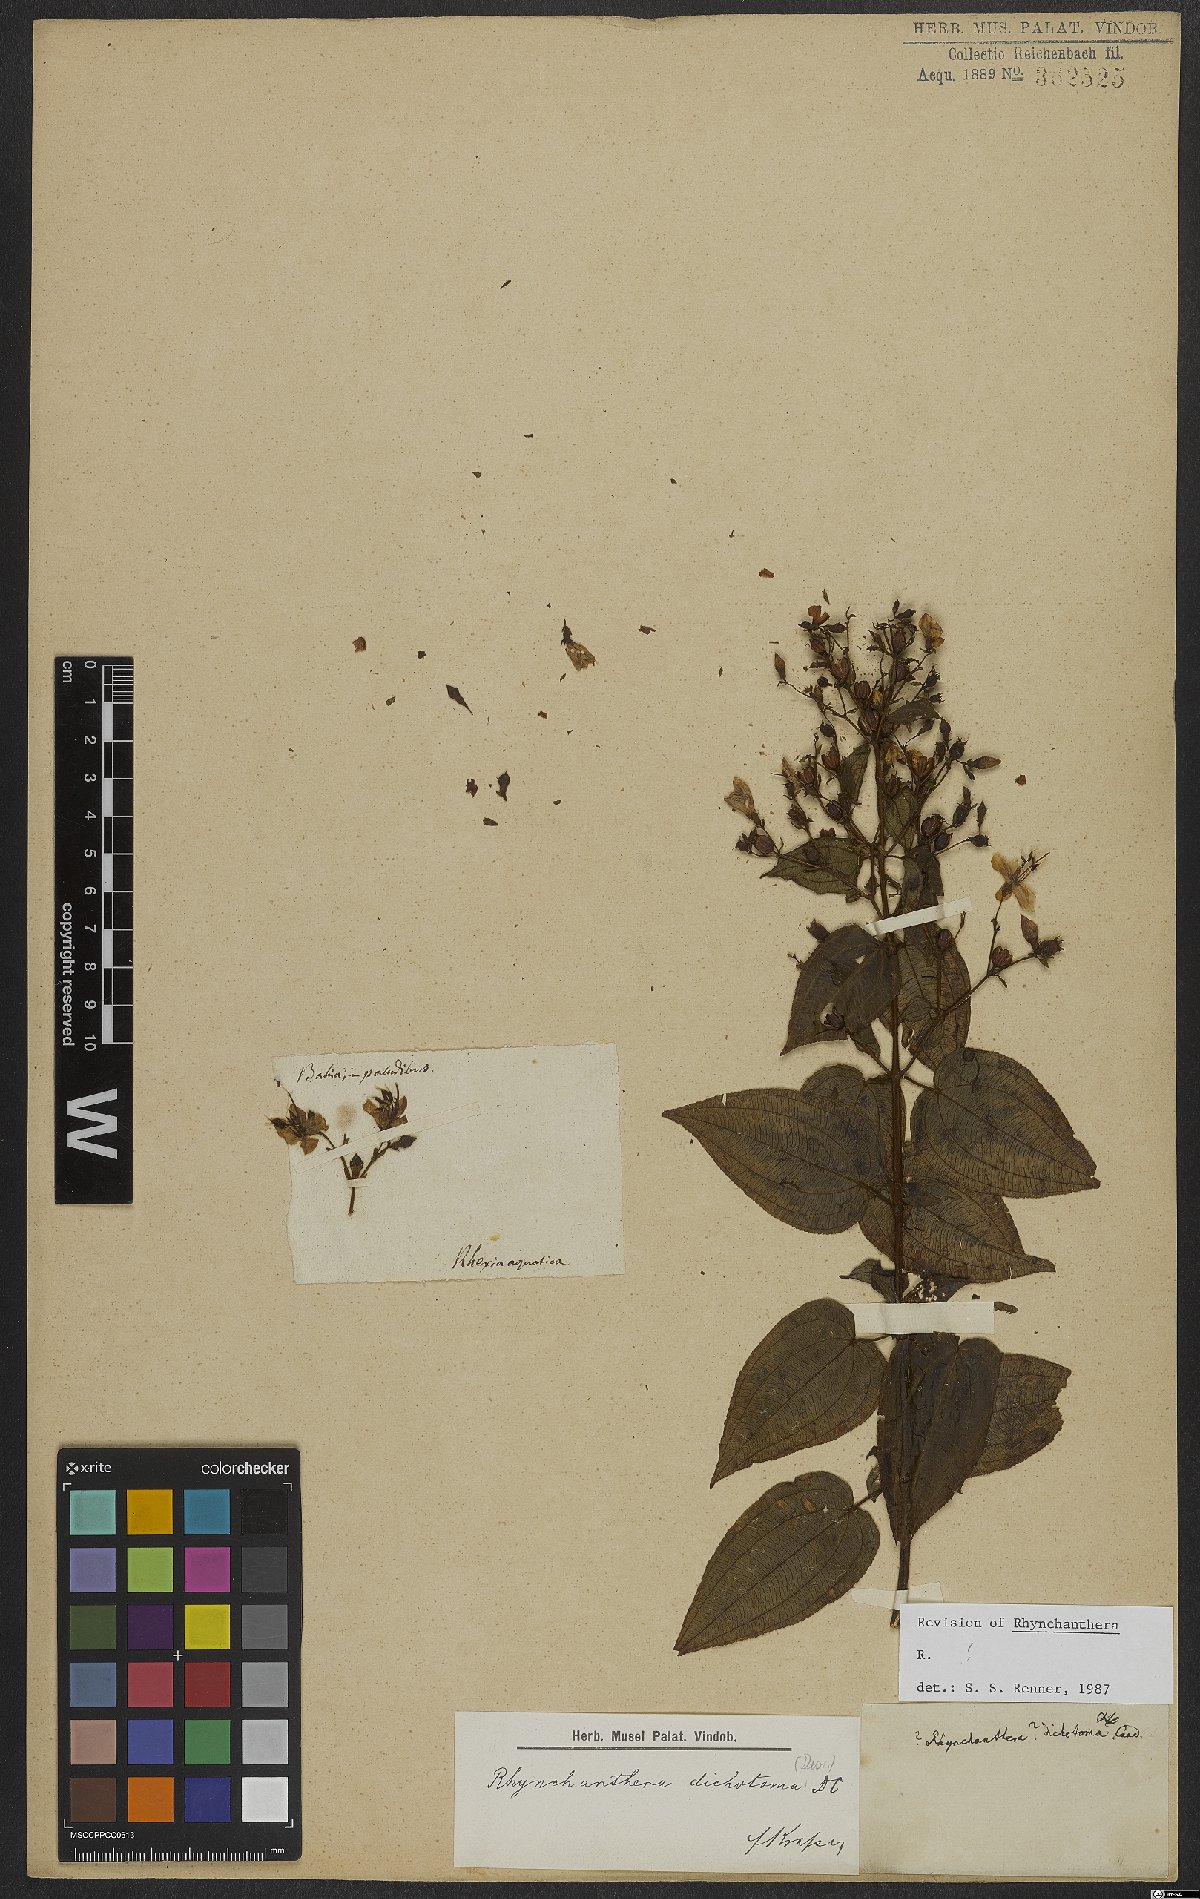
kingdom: Plantae
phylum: Tracheophyta
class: Magnoliopsida
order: Myrtales
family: Melastomataceae
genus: Rhynchanthera
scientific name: Rhynchanthera dichotoma
